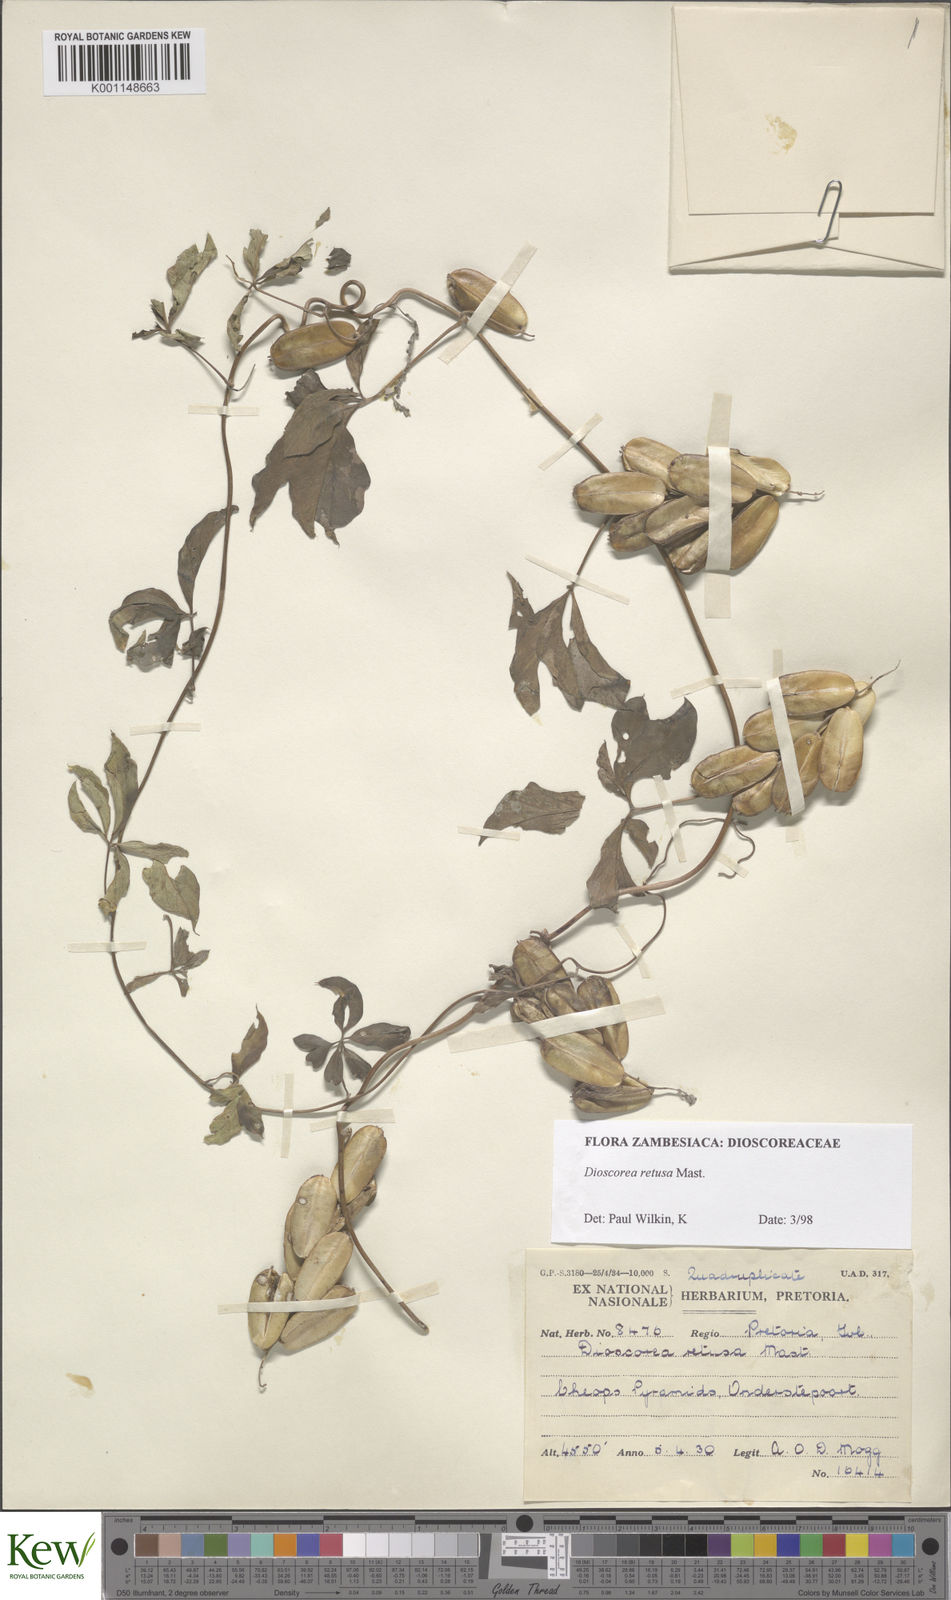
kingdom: Plantae
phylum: Tracheophyta
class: Liliopsida
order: Dioscoreales
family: Dioscoreaceae
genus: Dioscorea
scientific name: Dioscorea retusa
